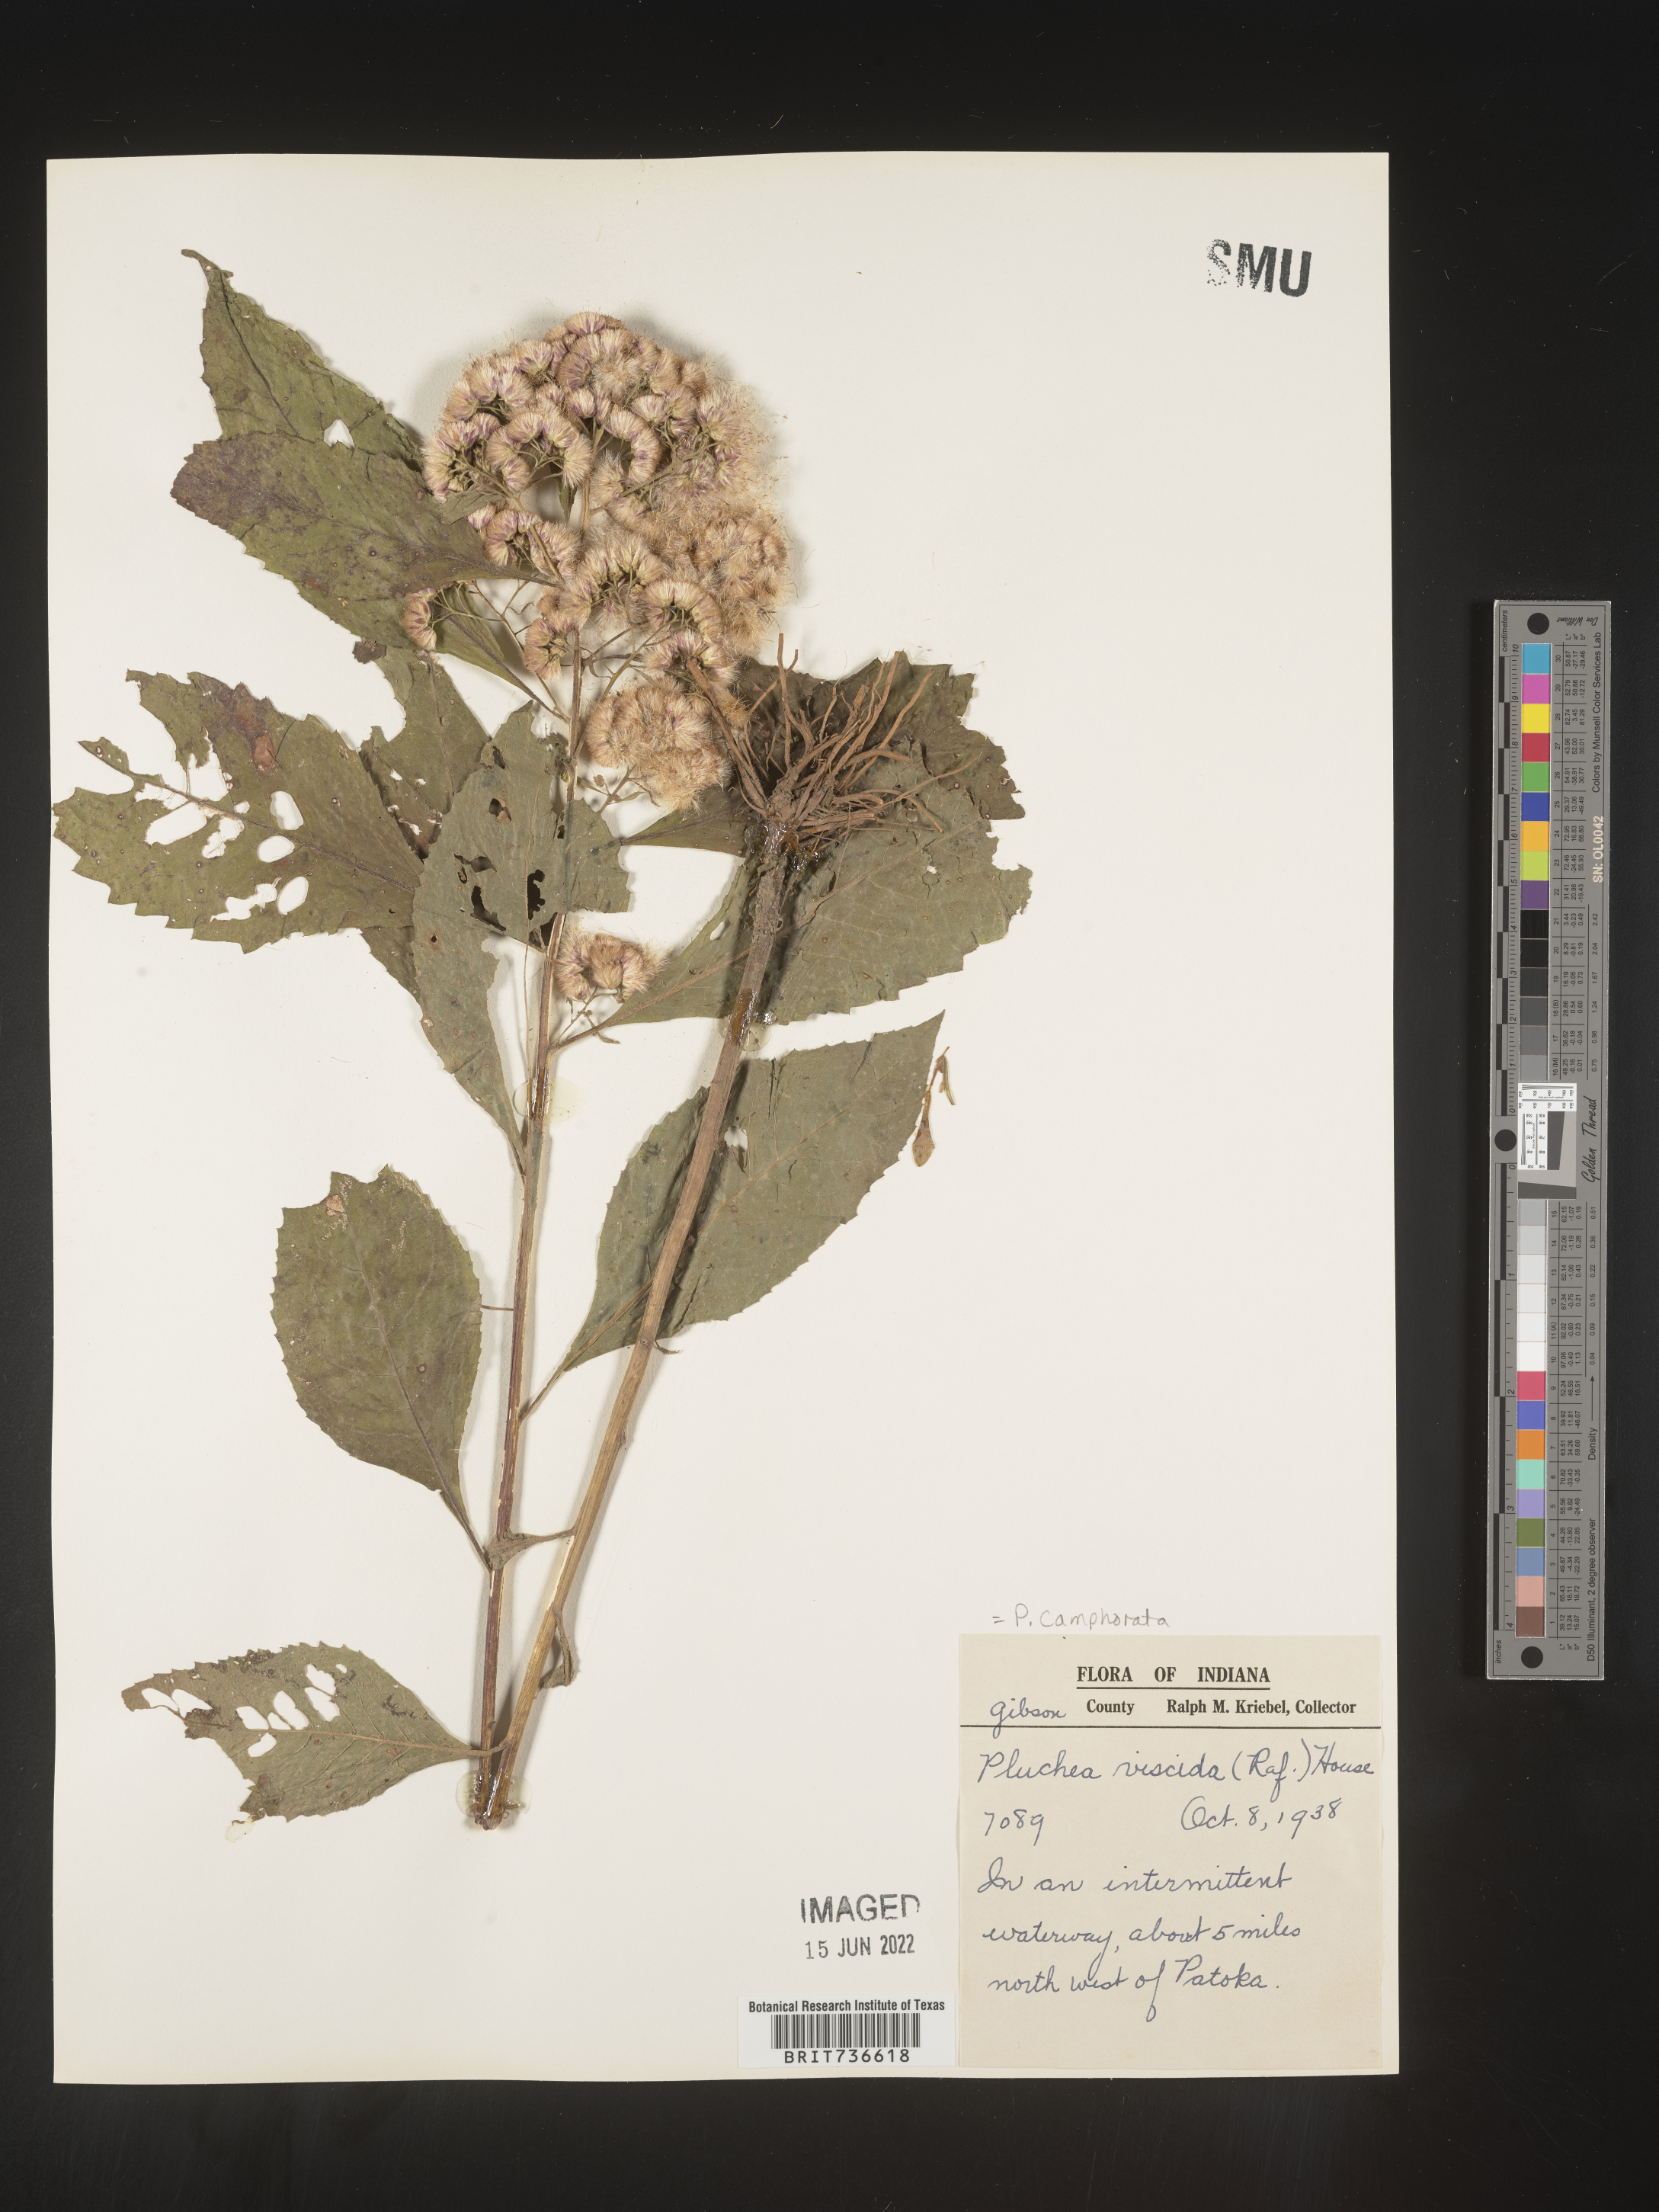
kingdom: Plantae
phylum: Tracheophyta
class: Magnoliopsida
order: Asterales
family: Asteraceae
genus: Pluchea
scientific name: Pluchea camphorata
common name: Camphor pluchea
